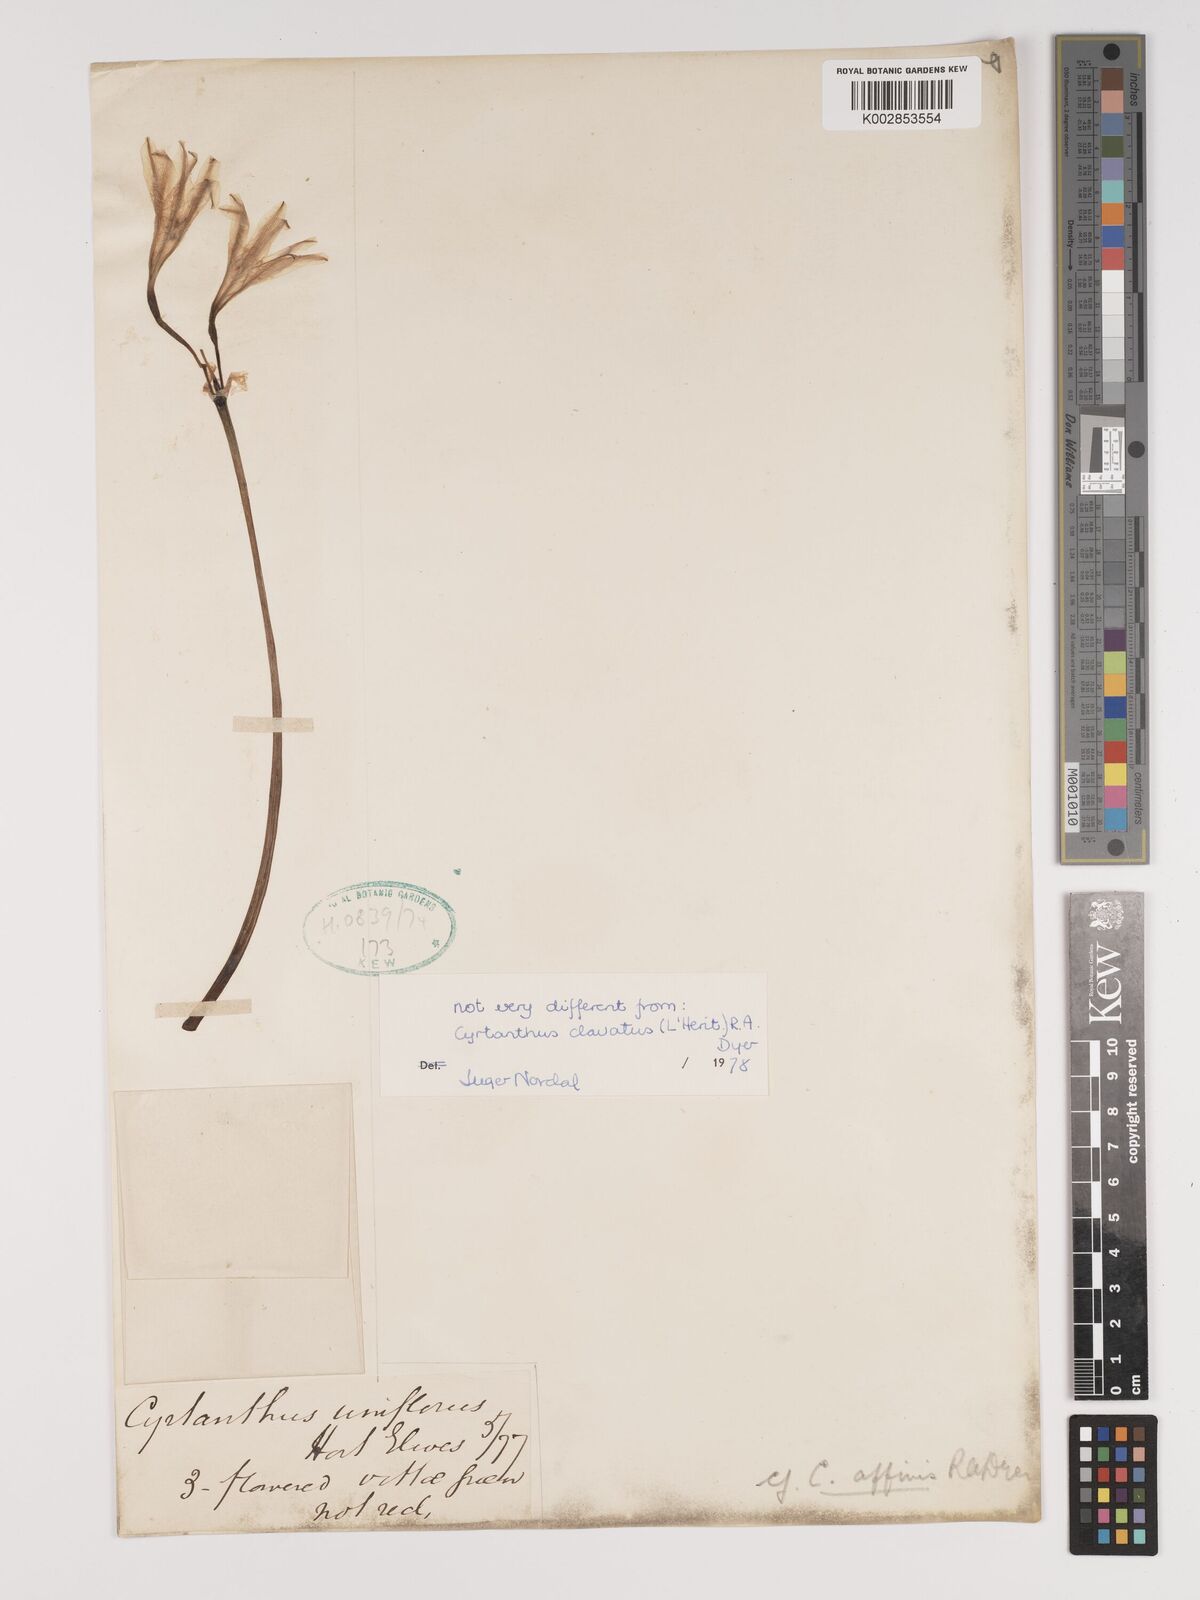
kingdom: Plantae
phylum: Tracheophyta
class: Liliopsida
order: Asparagales
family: Amaryllidaceae
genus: Cyrtanthus
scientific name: Cyrtanthus loddigesianus
